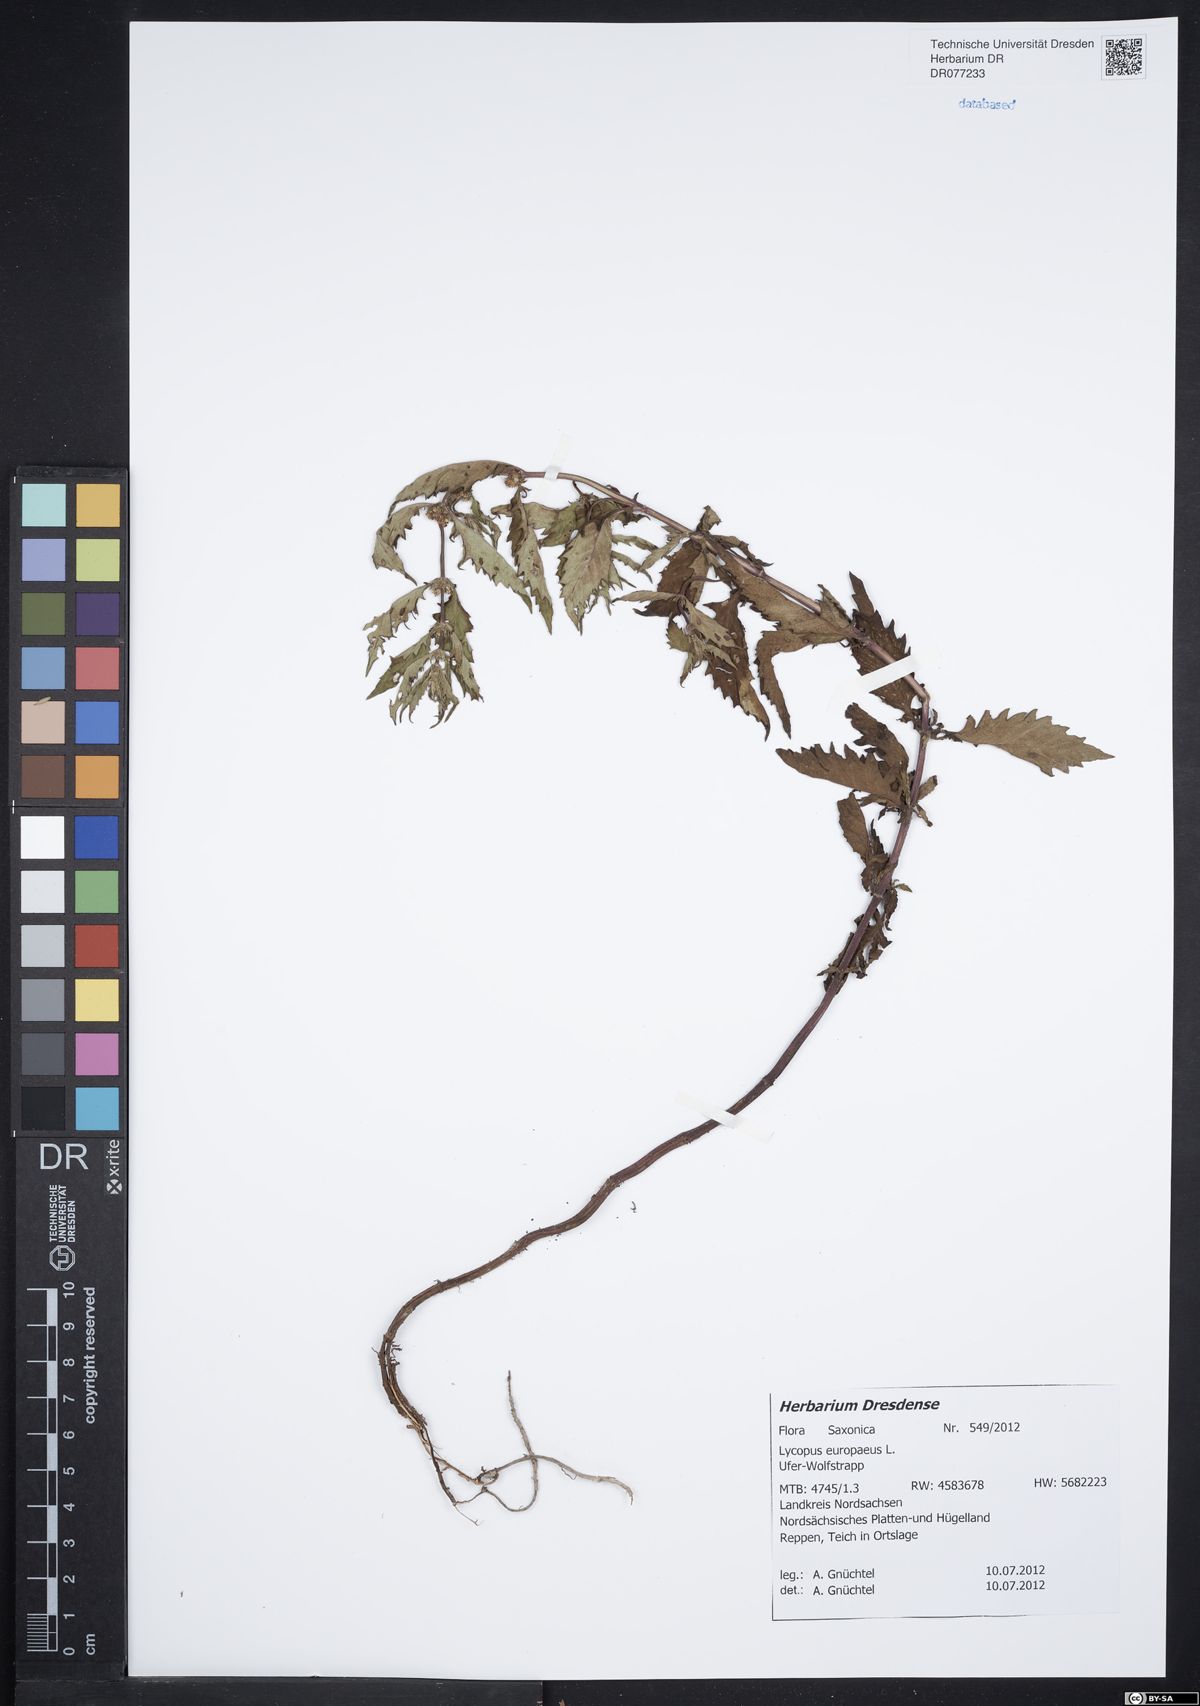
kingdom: Plantae
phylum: Tracheophyta
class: Magnoliopsida
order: Lamiales
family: Lamiaceae
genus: Lycopus
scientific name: Lycopus europaeus
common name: European bugleweed
